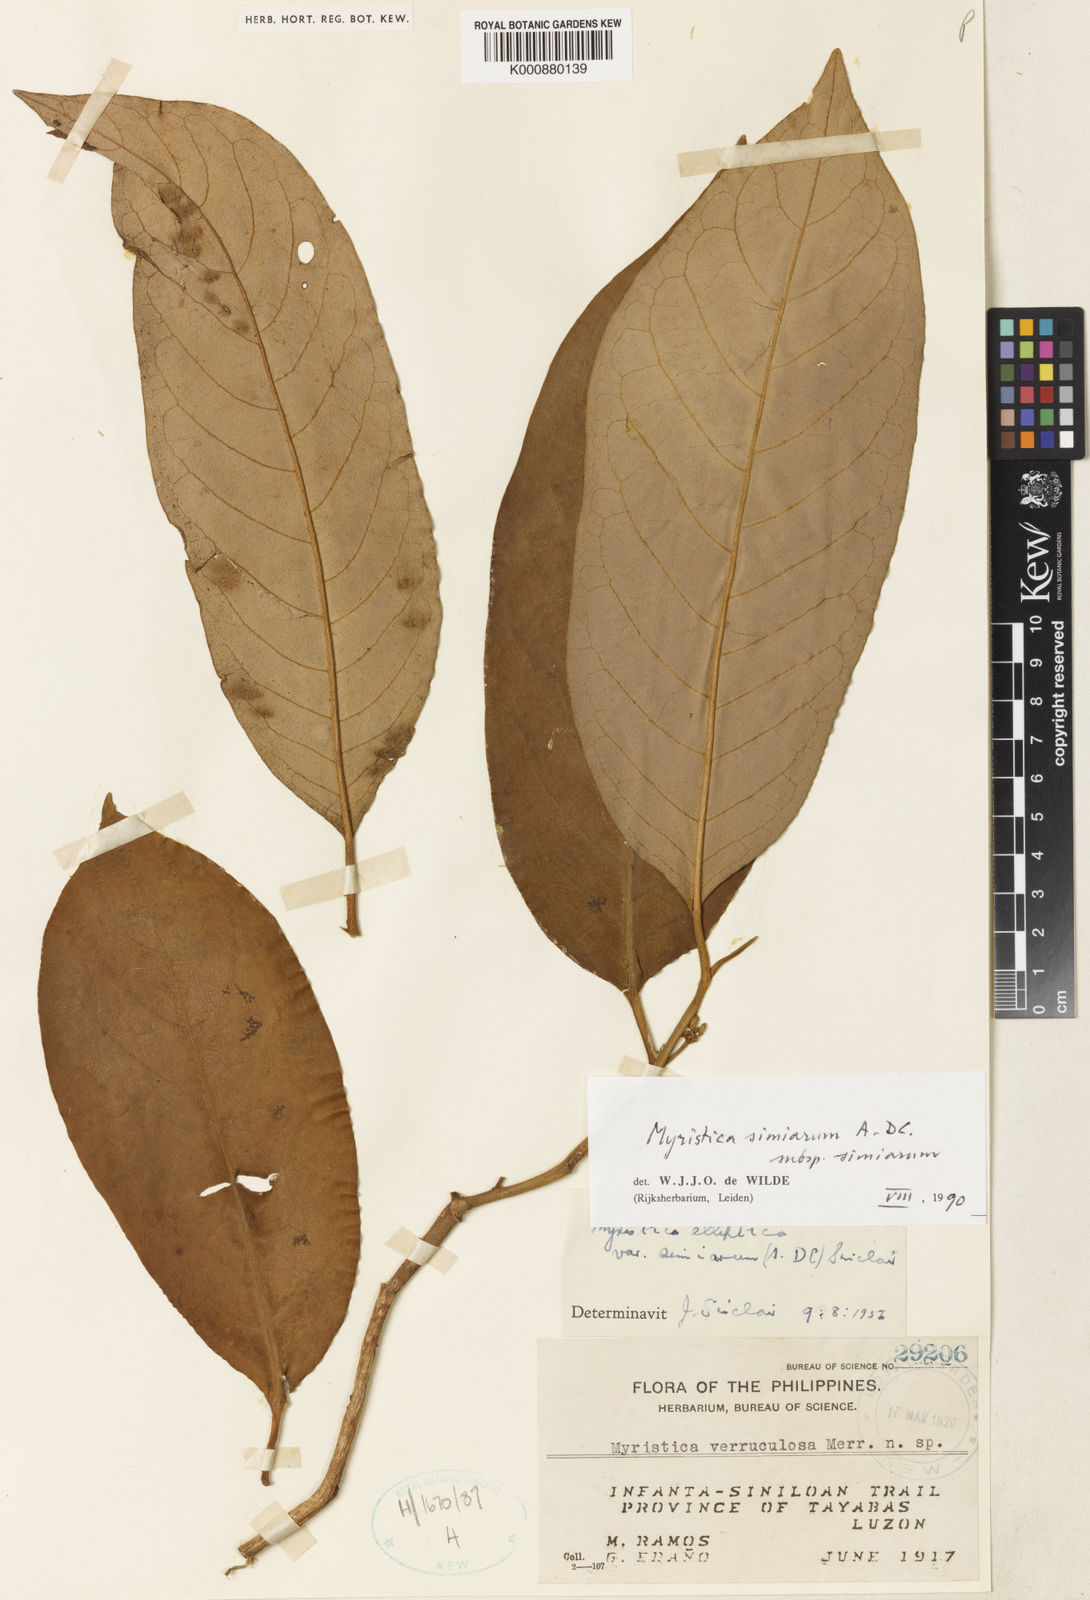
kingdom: Plantae
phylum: Tracheophyta
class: Magnoliopsida
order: Magnoliales
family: Myristicaceae
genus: Myristica
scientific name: Myristica simiarum
